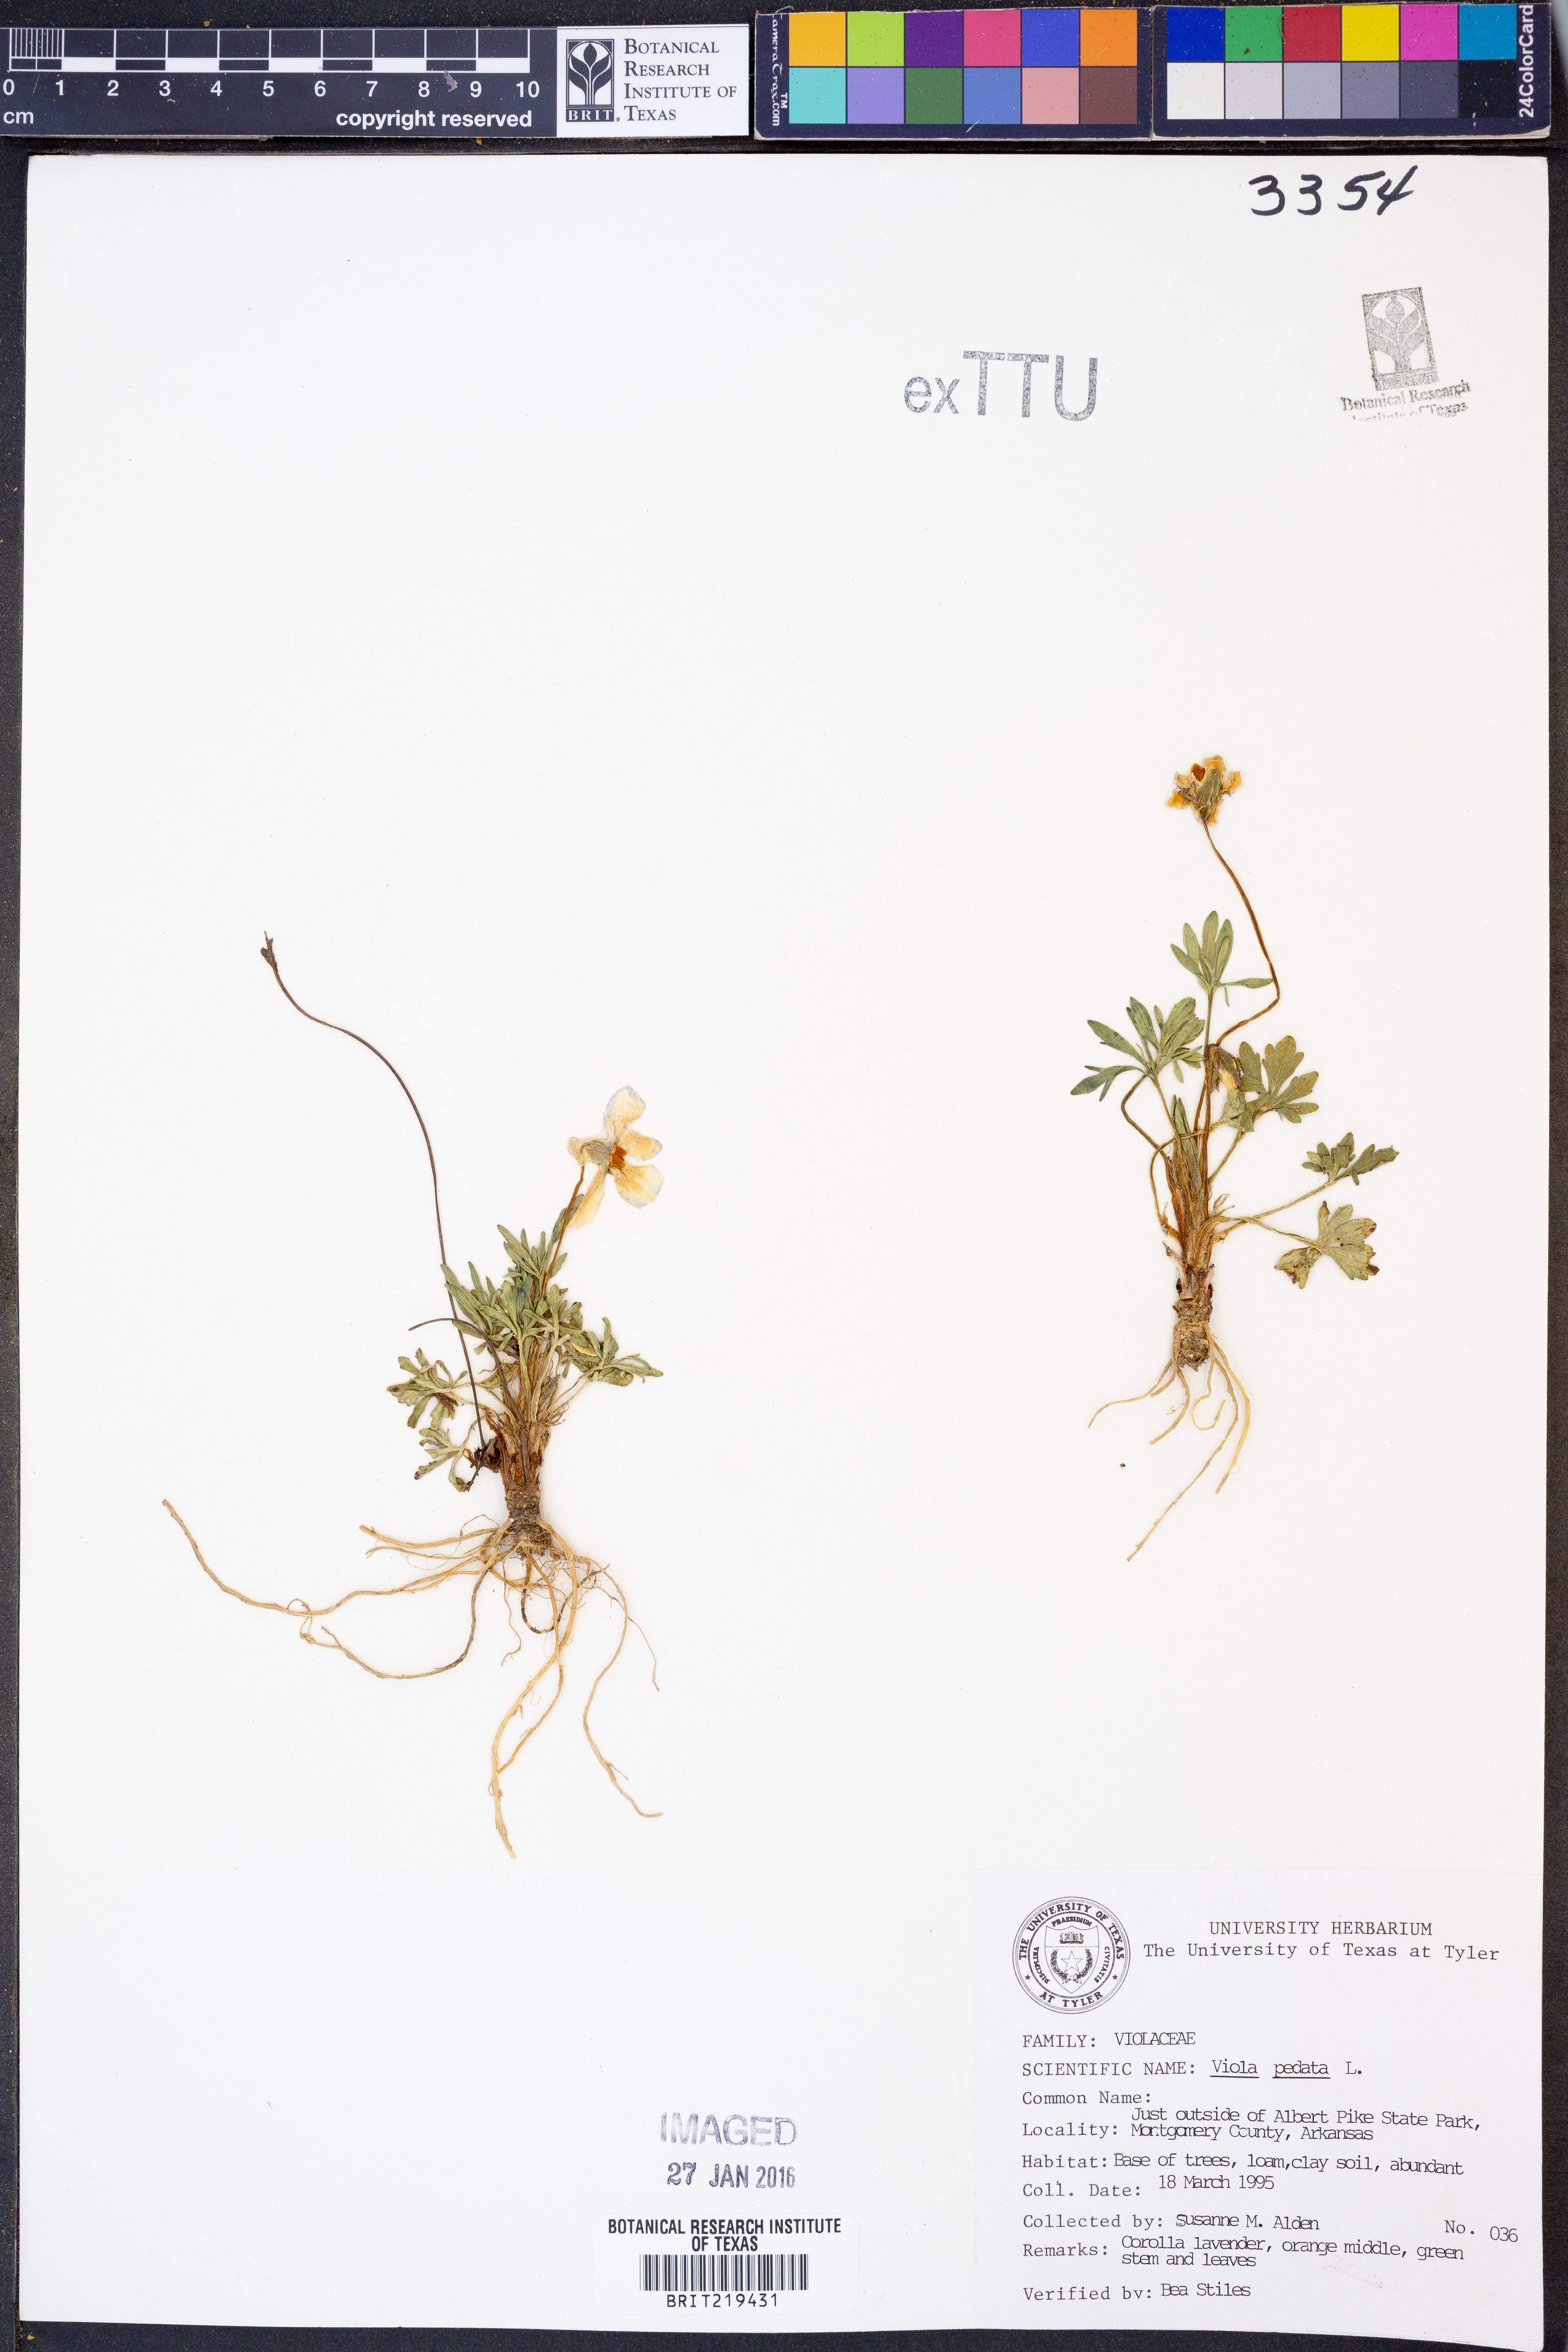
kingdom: Plantae
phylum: Tracheophyta
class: Magnoliopsida
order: Malpighiales
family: Violaceae
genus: Viola
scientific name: Viola pedata
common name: Pansy violet
